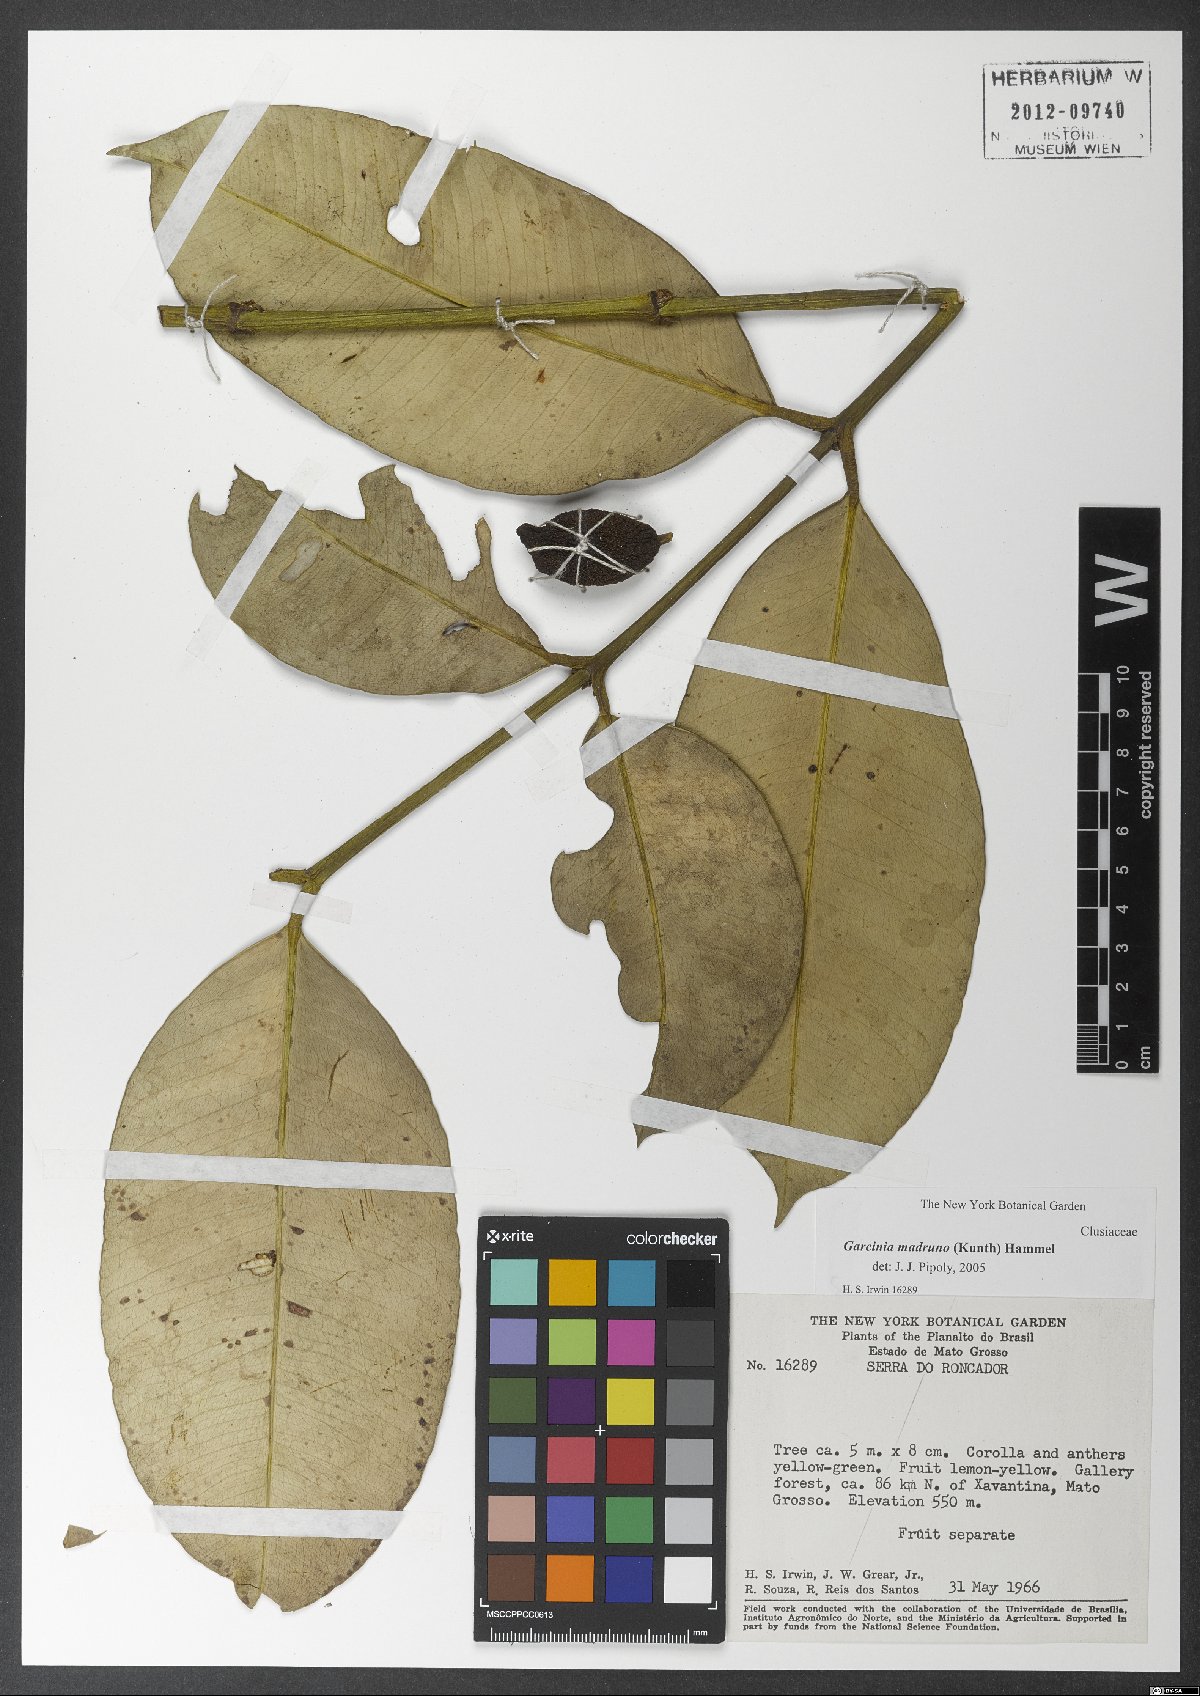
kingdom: Plantae
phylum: Tracheophyta
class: Magnoliopsida
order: Malpighiales
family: Clusiaceae
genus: Garcinia
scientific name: Garcinia madruno
